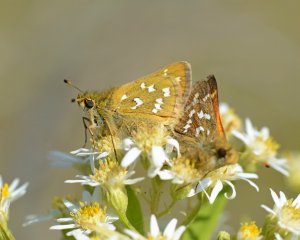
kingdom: Animalia
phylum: Arthropoda
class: Insecta
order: Lepidoptera
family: Hesperiidae
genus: Hesperia
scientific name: Hesperia comma
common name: Common Branded Skipper
